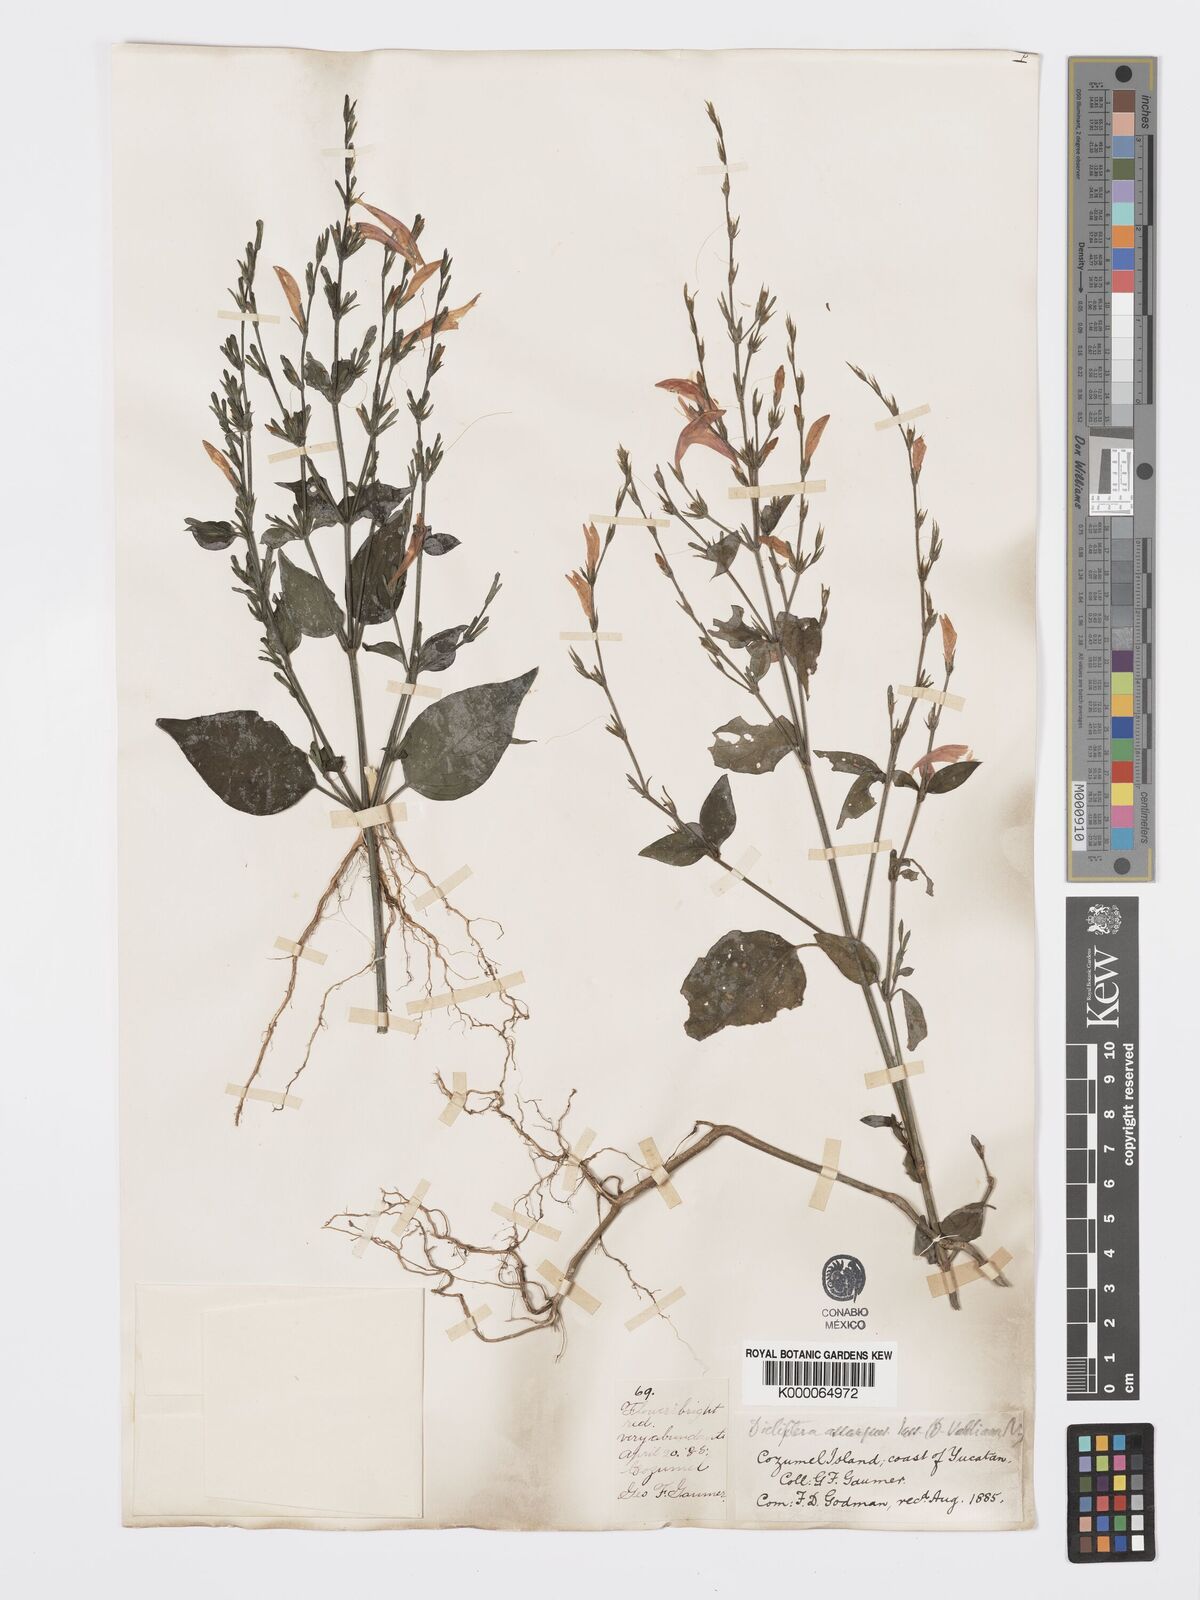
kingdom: Plantae
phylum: Tracheophyta
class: Magnoliopsida
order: Lamiales
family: Acanthaceae
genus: Dicliptera
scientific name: Dicliptera sexangularis
